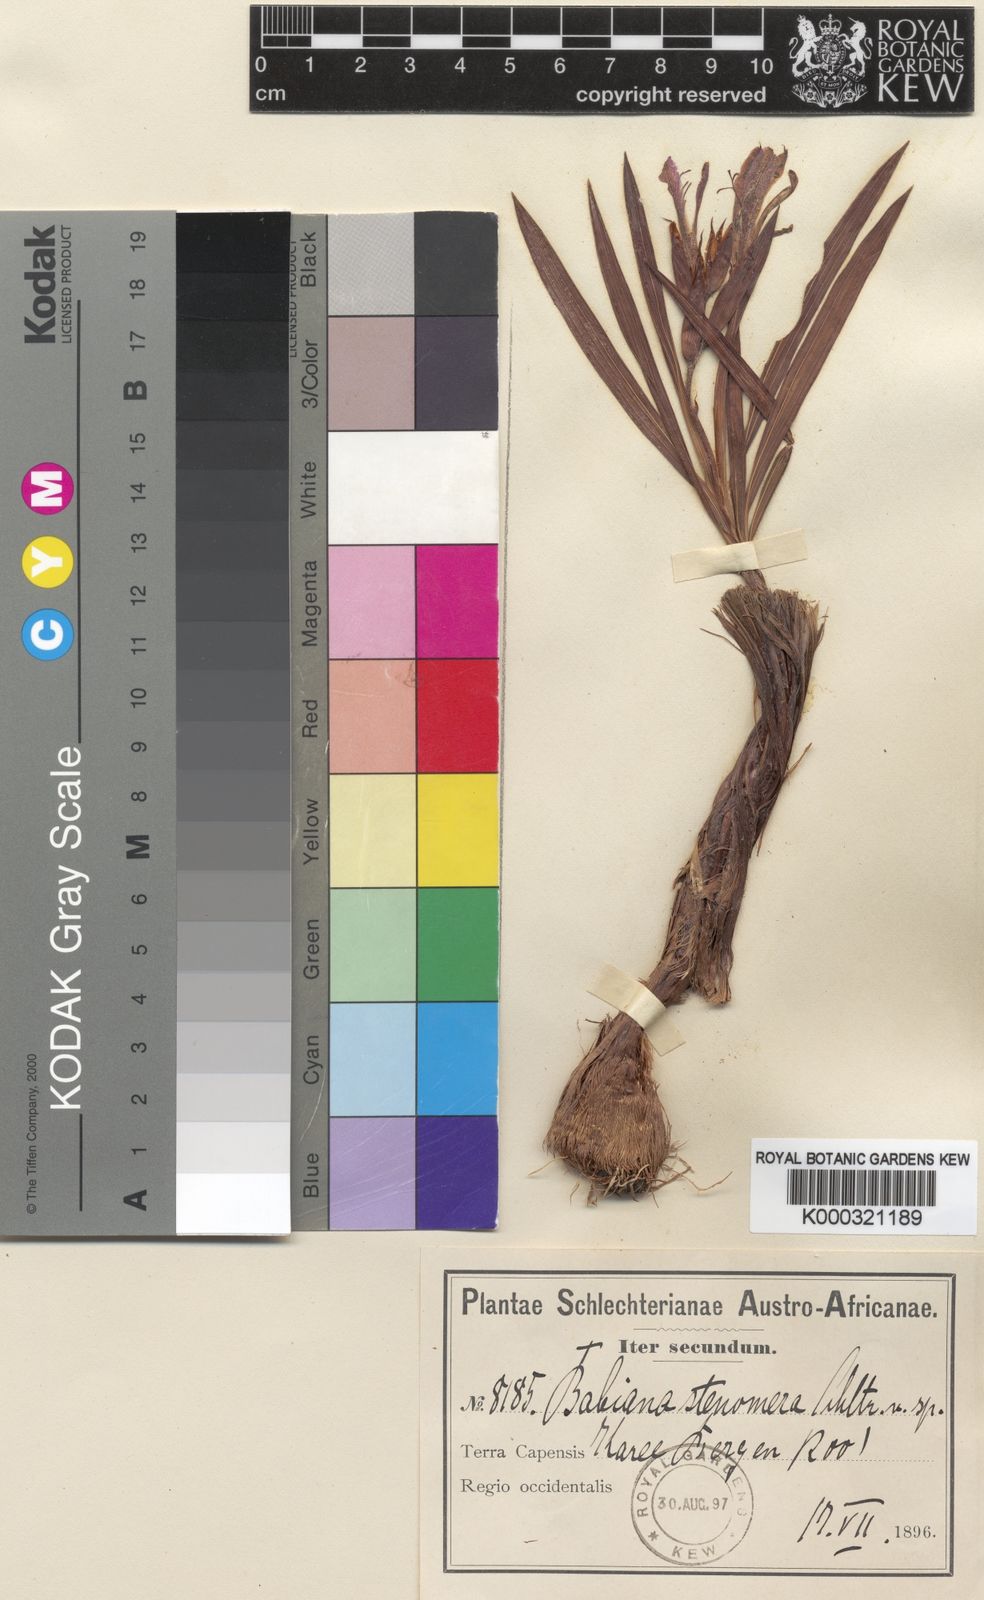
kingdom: Plantae
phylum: Tracheophyta
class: Liliopsida
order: Asparagales
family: Iridaceae
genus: Babiana
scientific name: Babiana stenomera
